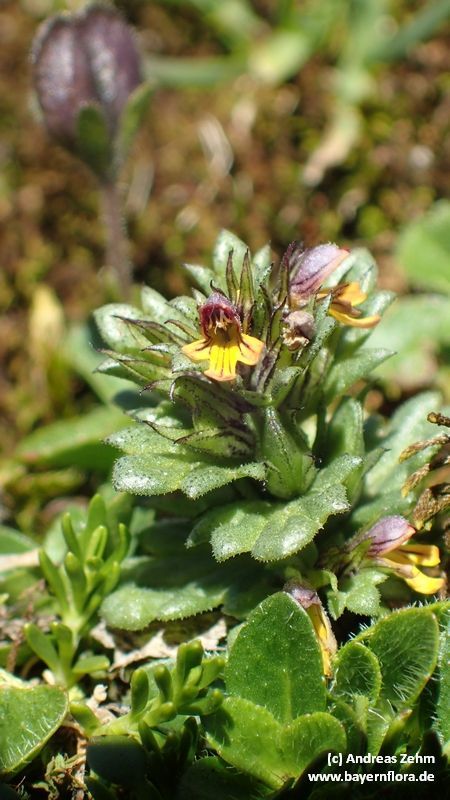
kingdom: Plantae
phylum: Tracheophyta
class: Magnoliopsida
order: Lamiales
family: Orobanchaceae
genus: Euphrasia
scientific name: Euphrasia minima
